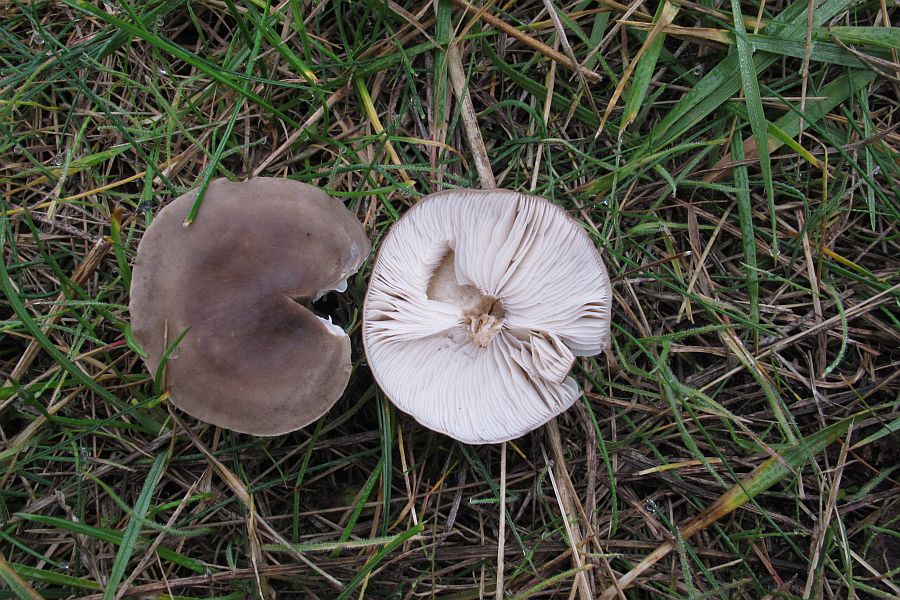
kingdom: Fungi
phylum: Basidiomycota
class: Agaricomycetes
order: Agaricales
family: Tricholomataceae
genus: Melanoleuca
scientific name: Melanoleuca polioleuca
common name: almindelig munkehat
